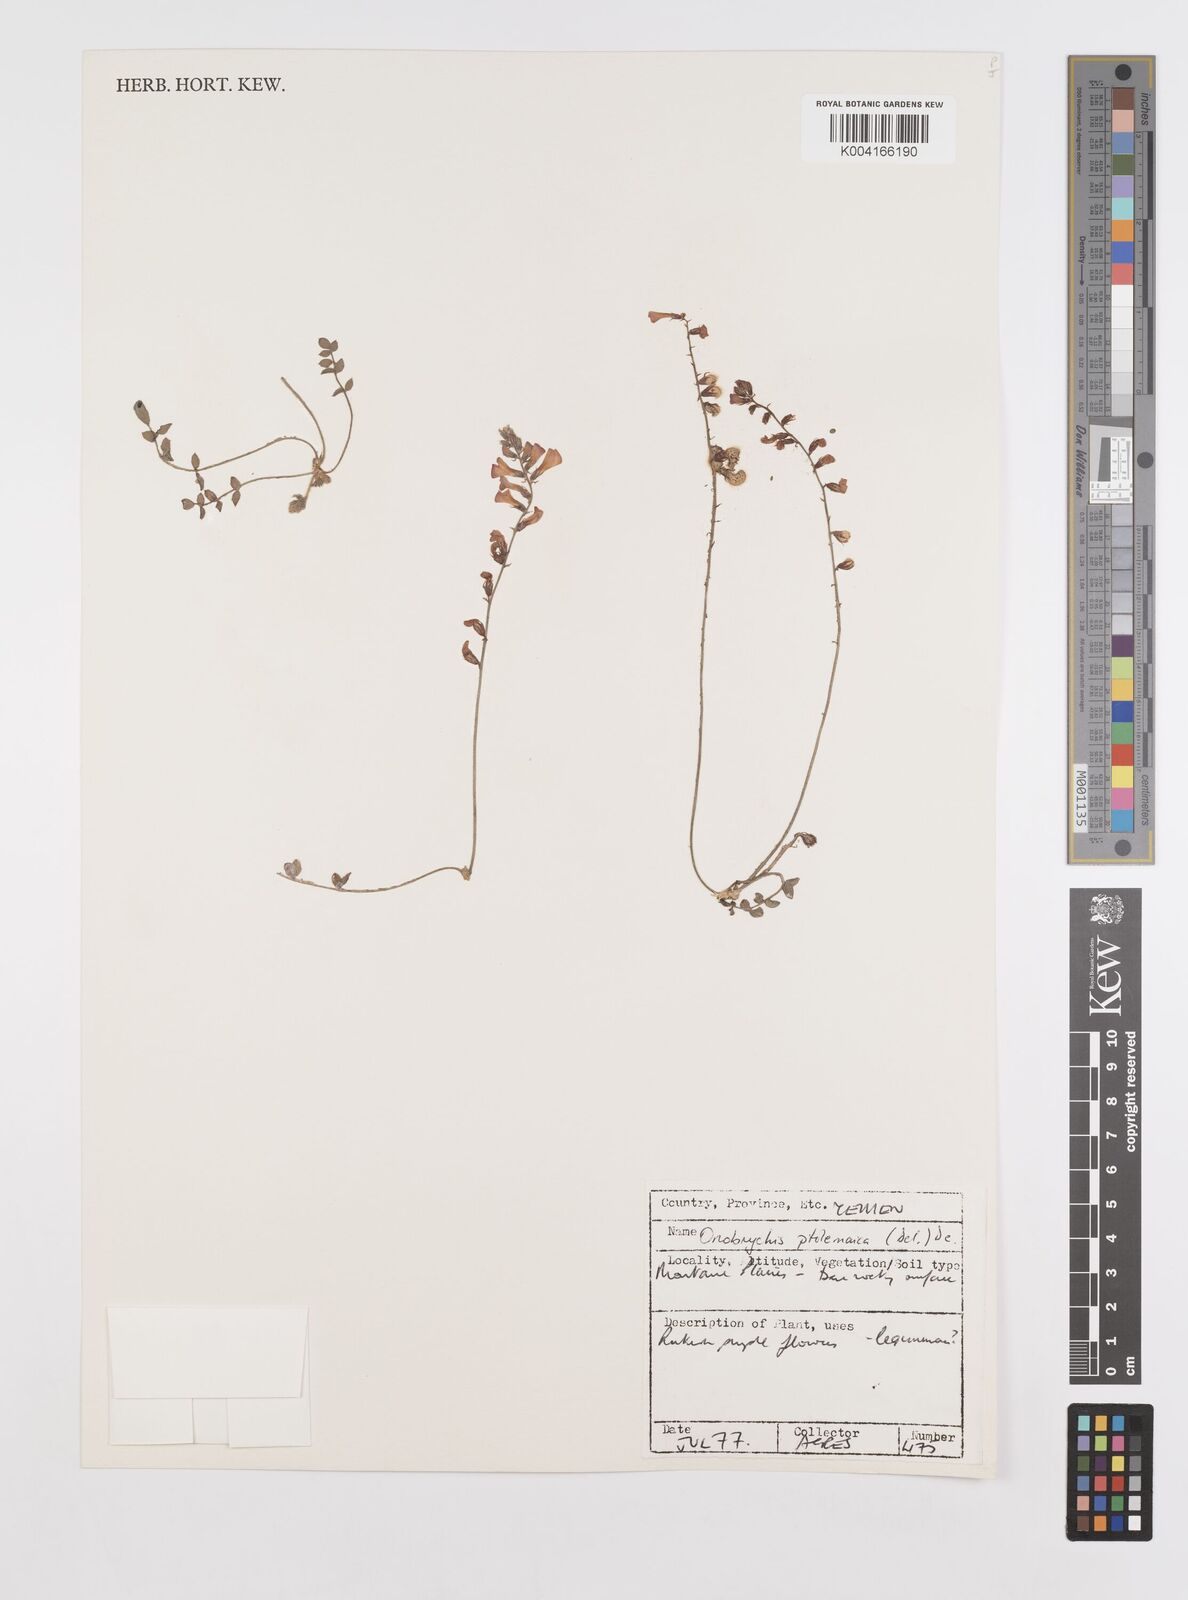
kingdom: Plantae
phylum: Tracheophyta
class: Magnoliopsida
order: Fabales
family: Fabaceae
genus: Onobrychis
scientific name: Onobrychis ptolemaica
